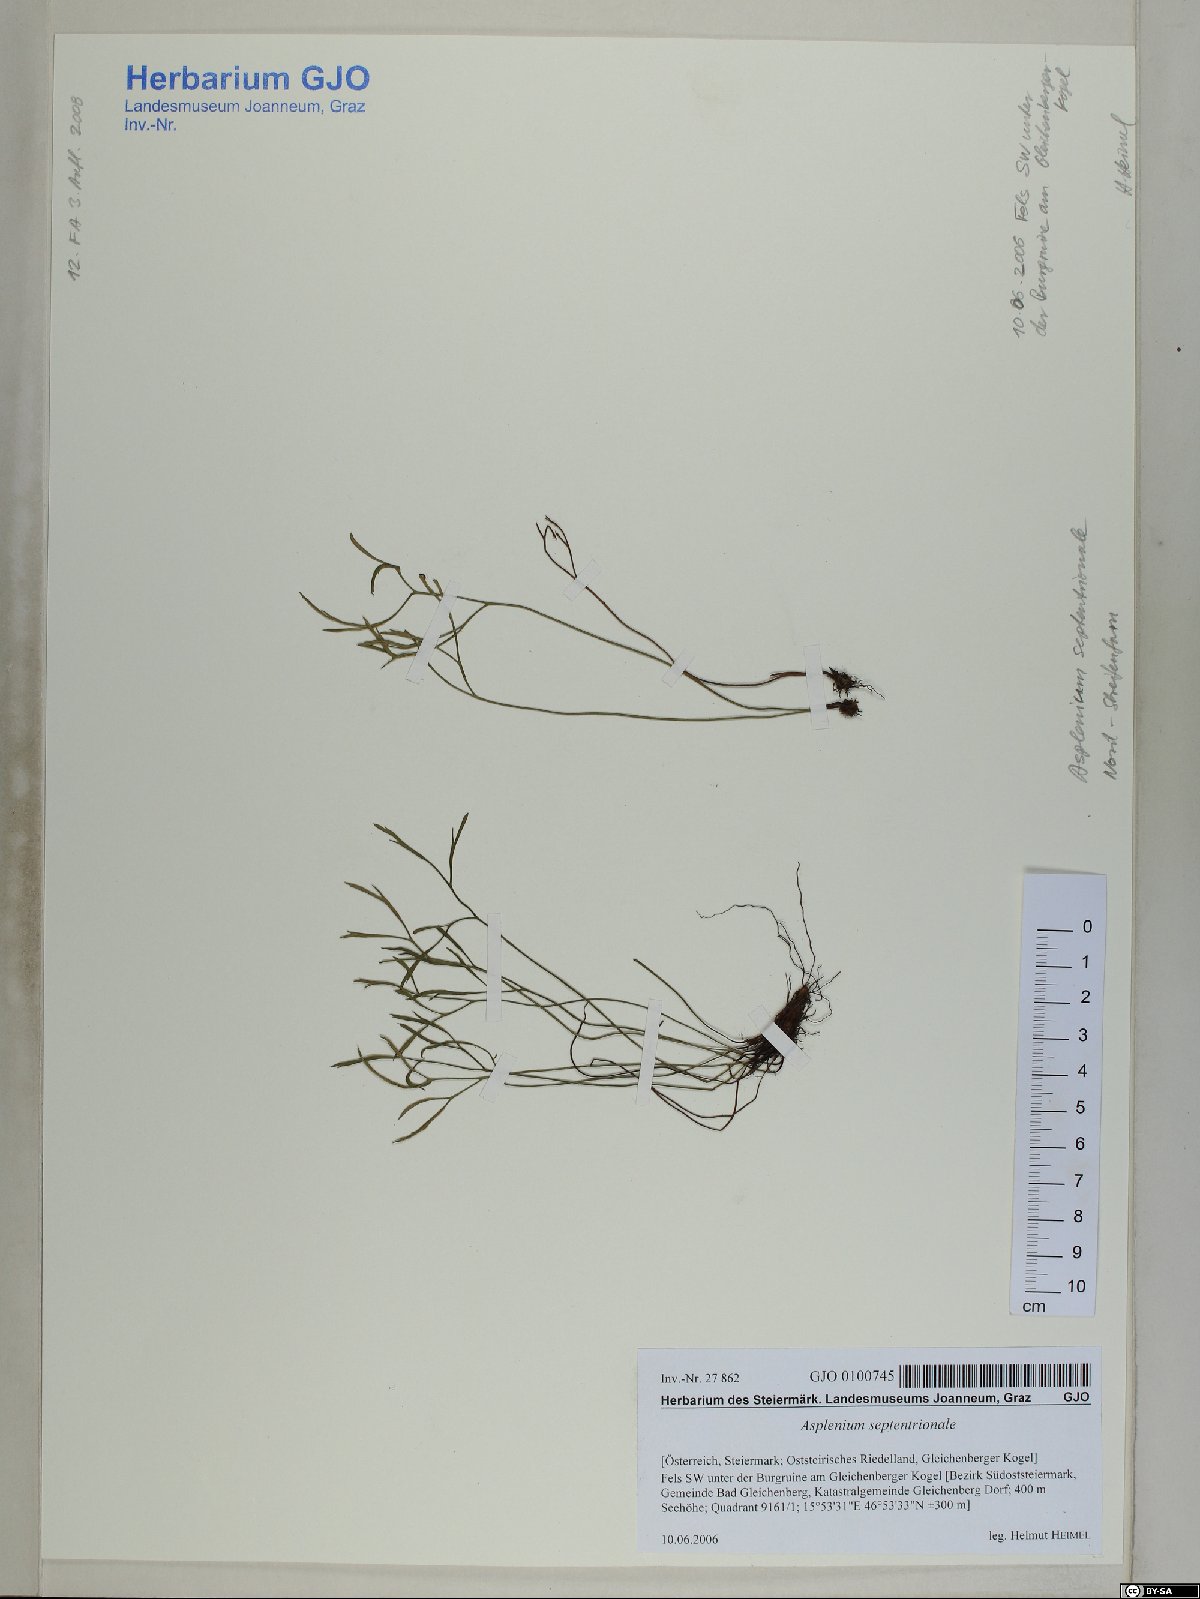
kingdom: Plantae
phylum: Tracheophyta
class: Polypodiopsida
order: Polypodiales
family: Aspleniaceae
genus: Asplenium
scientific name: Asplenium septentrionale
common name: Forked spleenwort
